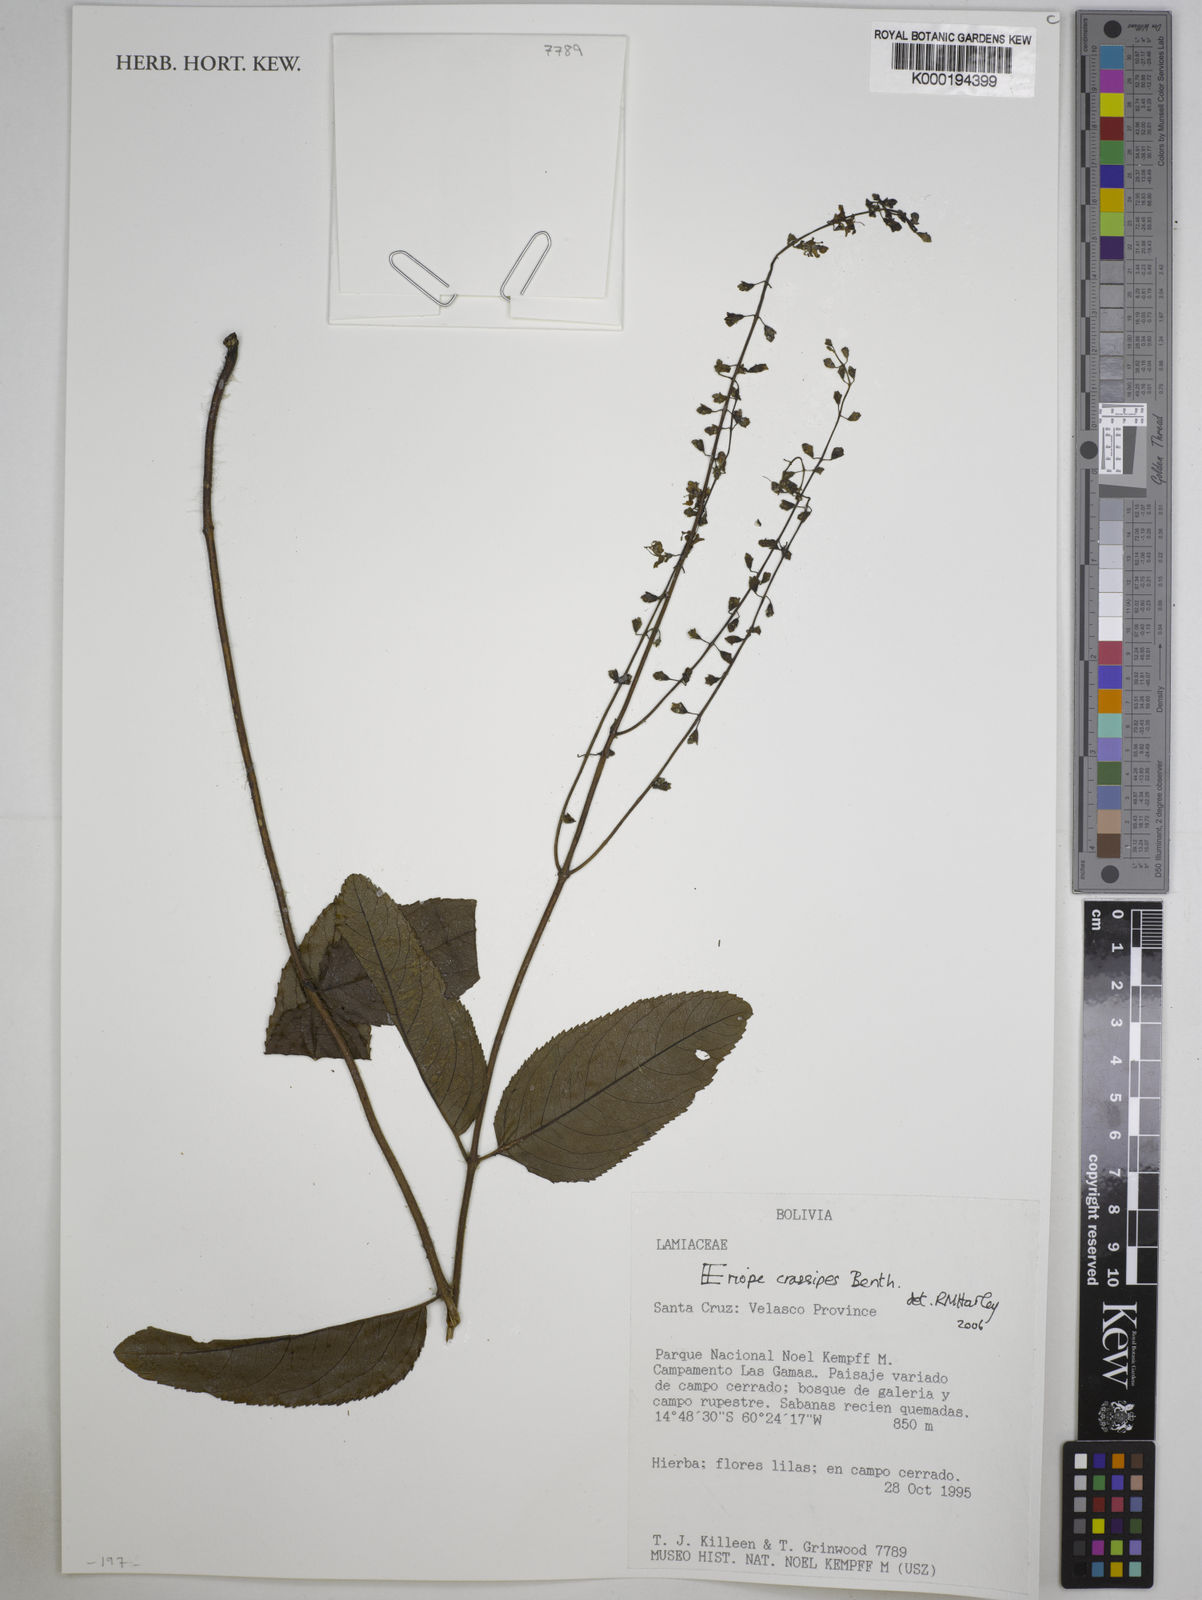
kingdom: Plantae
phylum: Tracheophyta
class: Magnoliopsida
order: Lamiales
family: Lamiaceae
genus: Eriope
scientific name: Eriope crassipes
